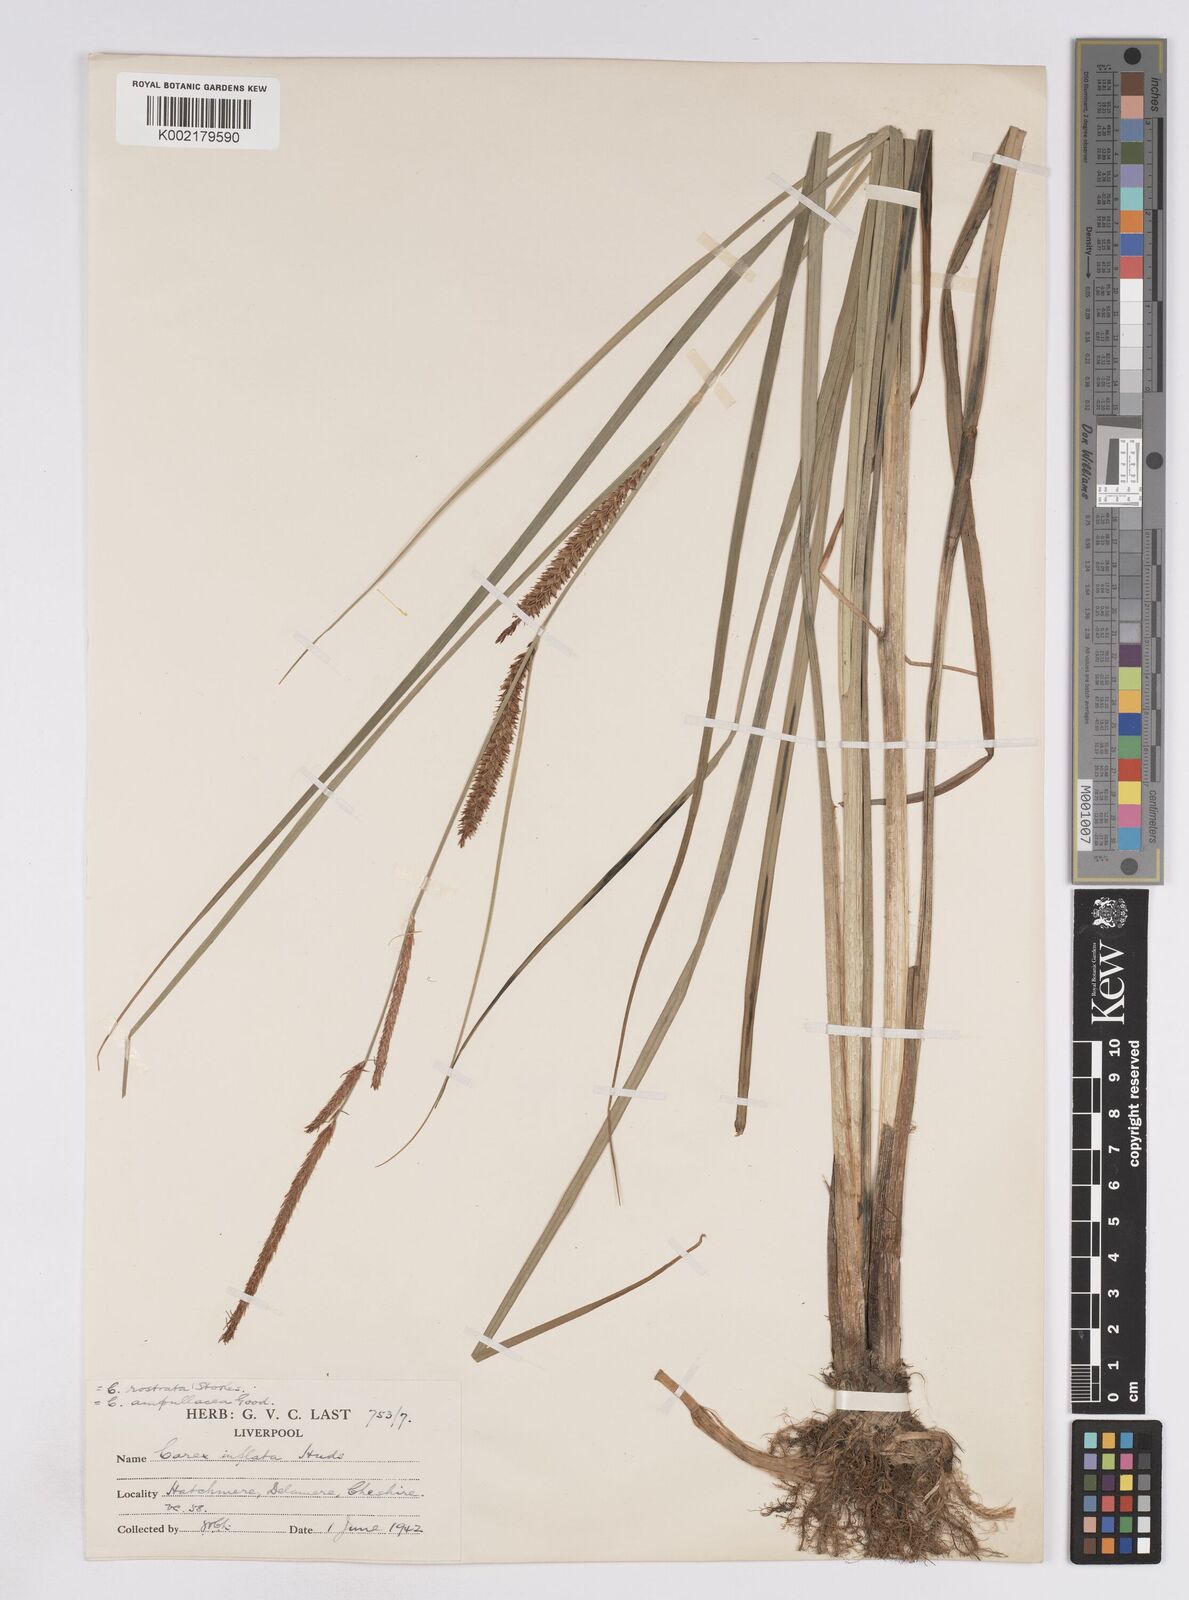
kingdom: Plantae
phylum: Tracheophyta
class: Liliopsida
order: Poales
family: Cyperaceae
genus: Carex
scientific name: Carex rostrata
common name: Bottle sedge
